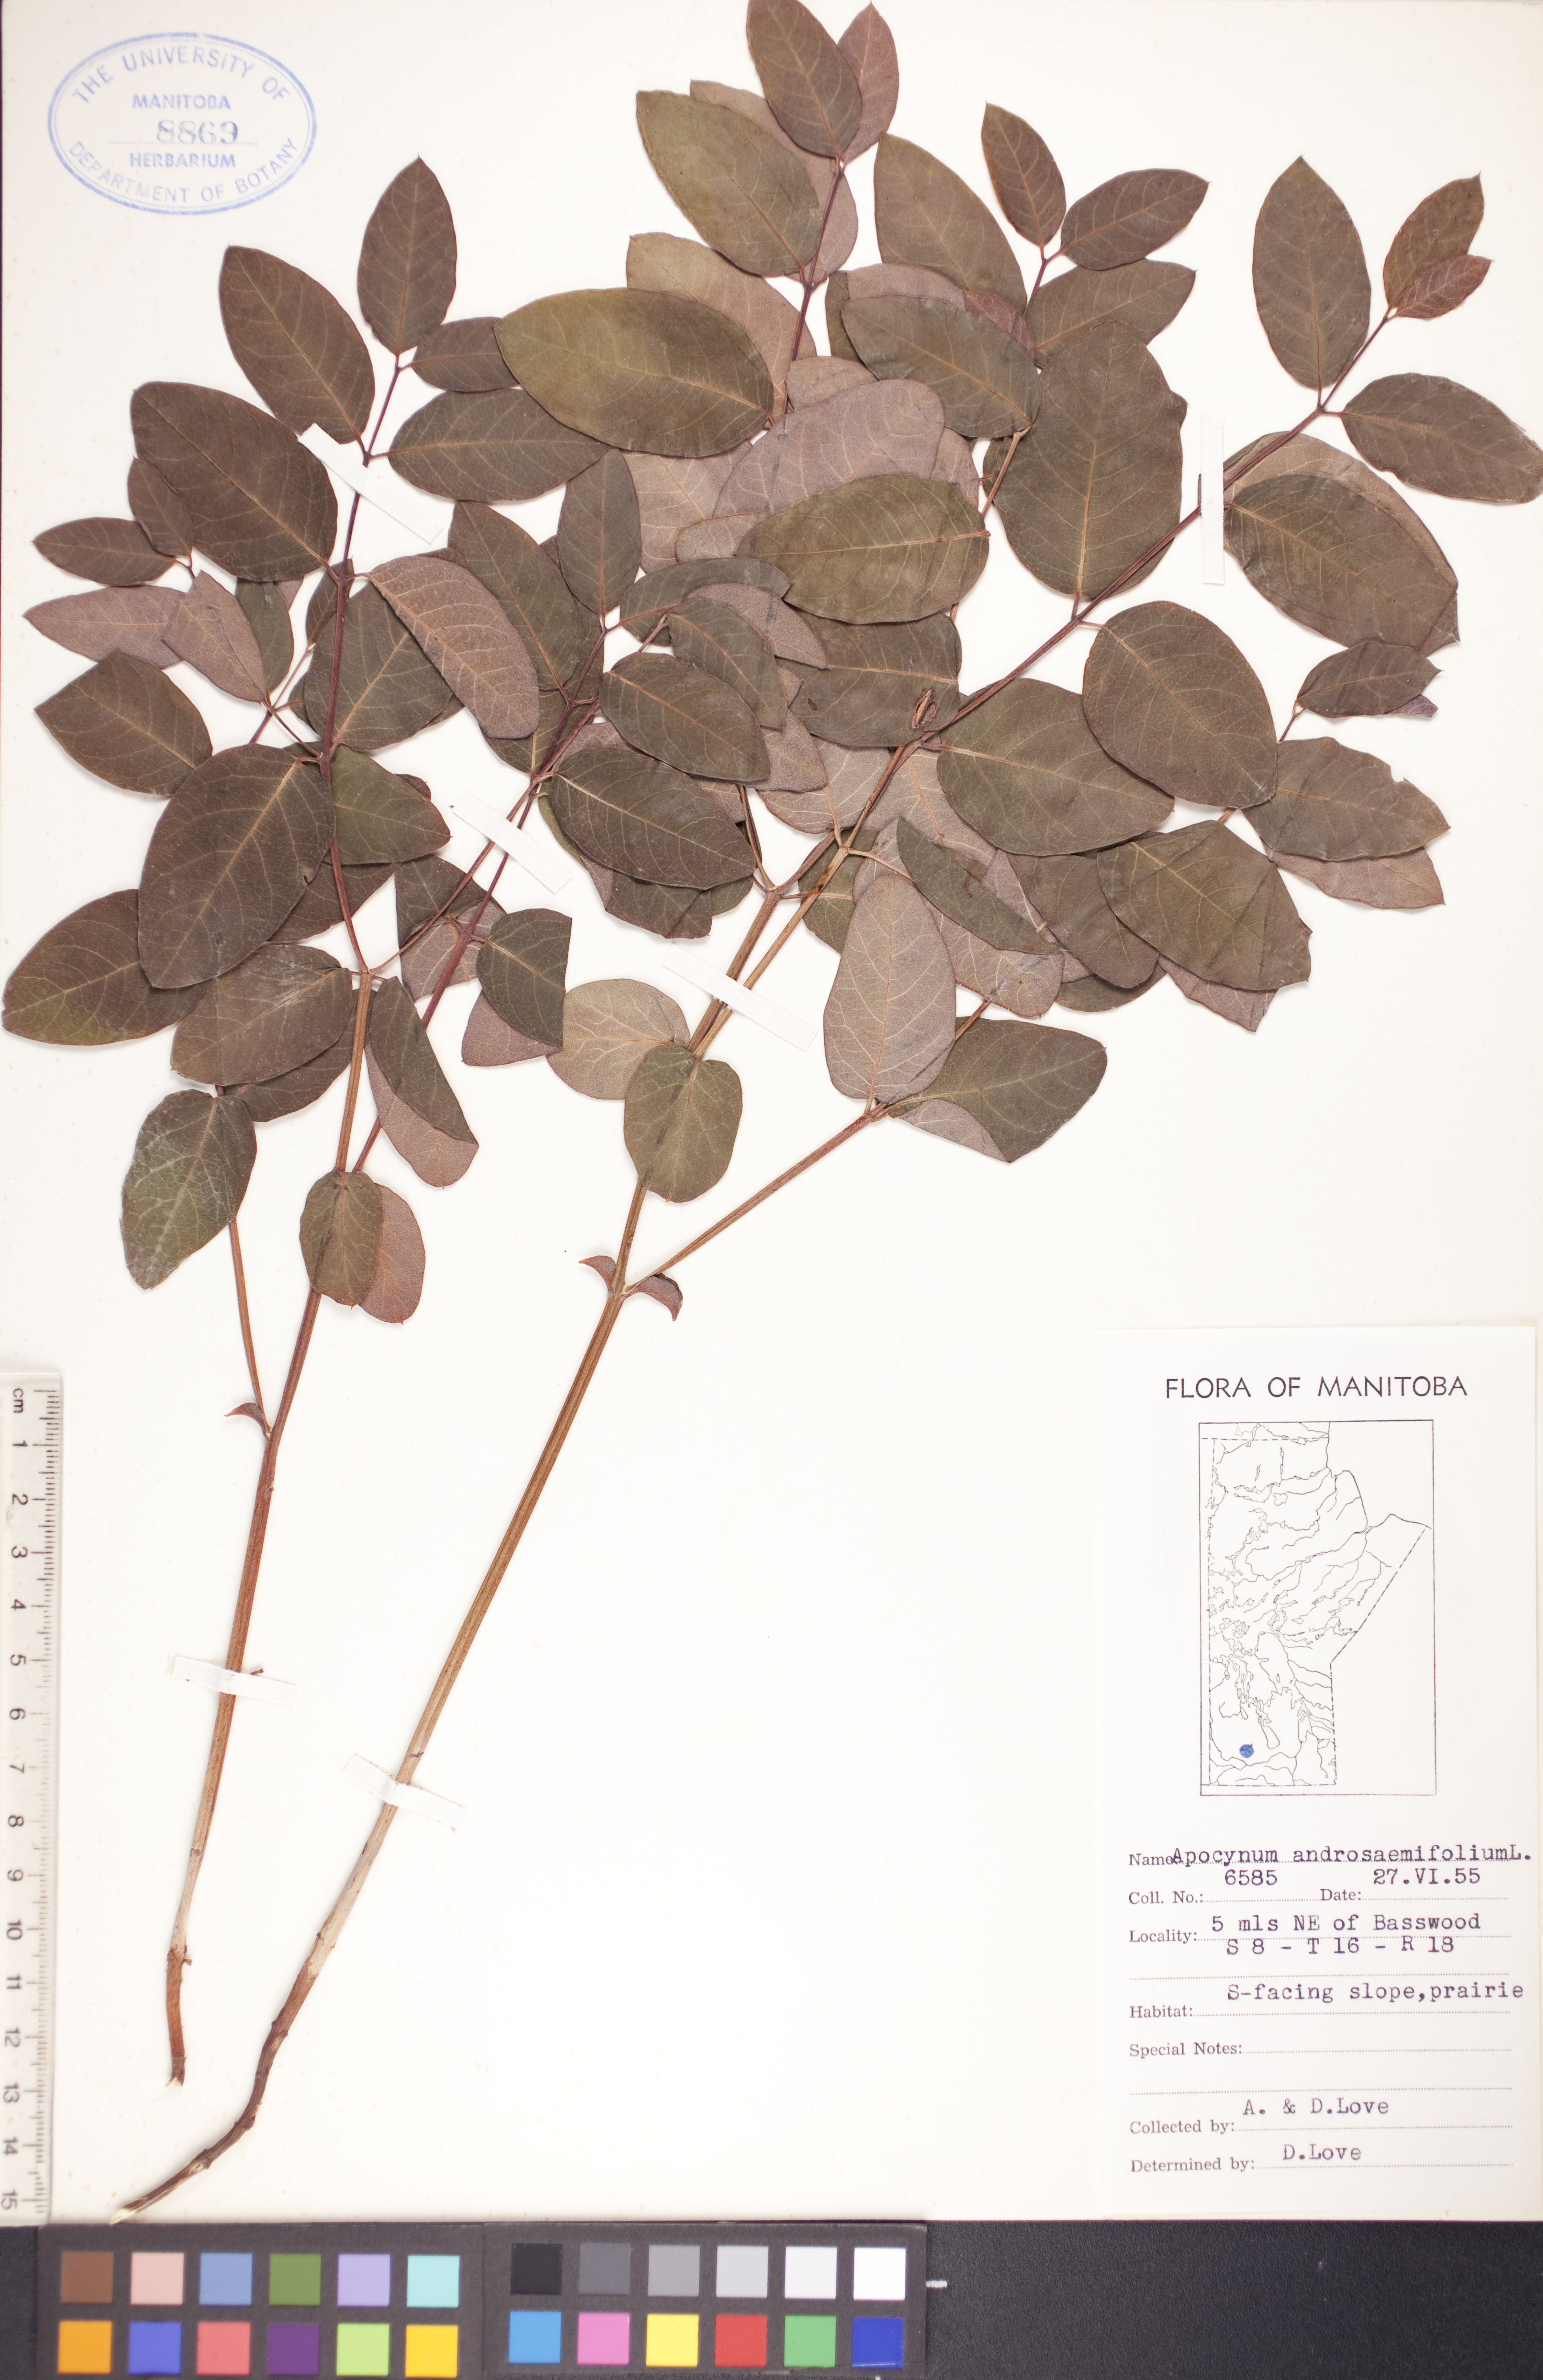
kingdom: Plantae
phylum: Tracheophyta
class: Magnoliopsida
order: Gentianales
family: Apocynaceae
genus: Apocynum
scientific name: Apocynum androsaemifolium
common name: Spreading dogbane
